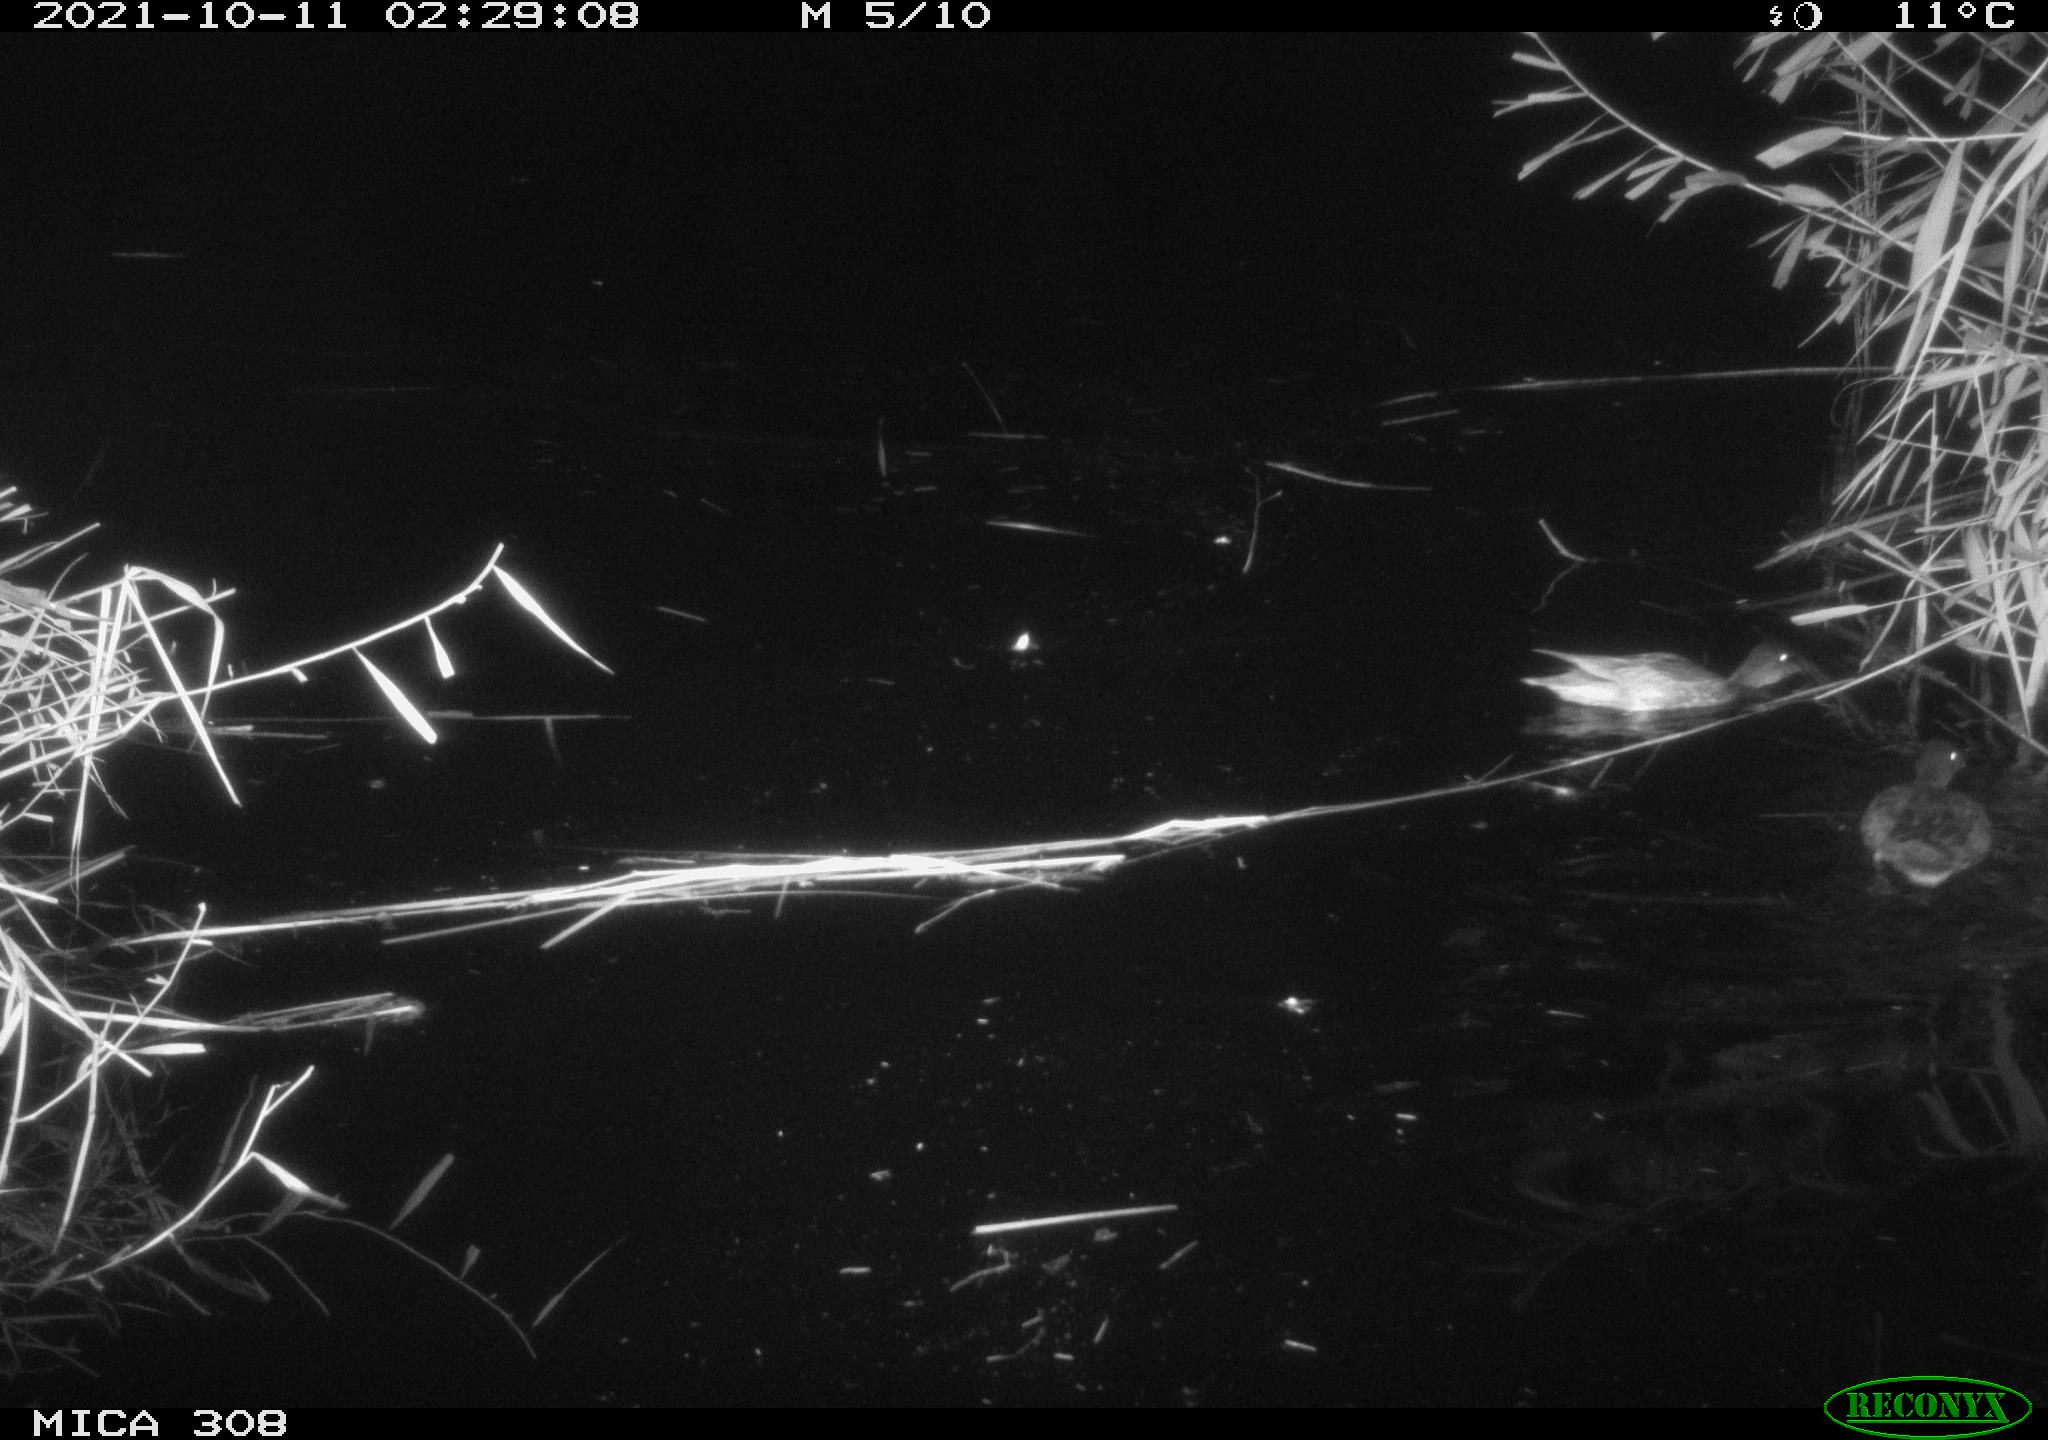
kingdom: Animalia
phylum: Chordata
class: Aves
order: Anseriformes
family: Anatidae
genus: Spatula
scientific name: Spatula clypeata
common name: Northern shoveler
